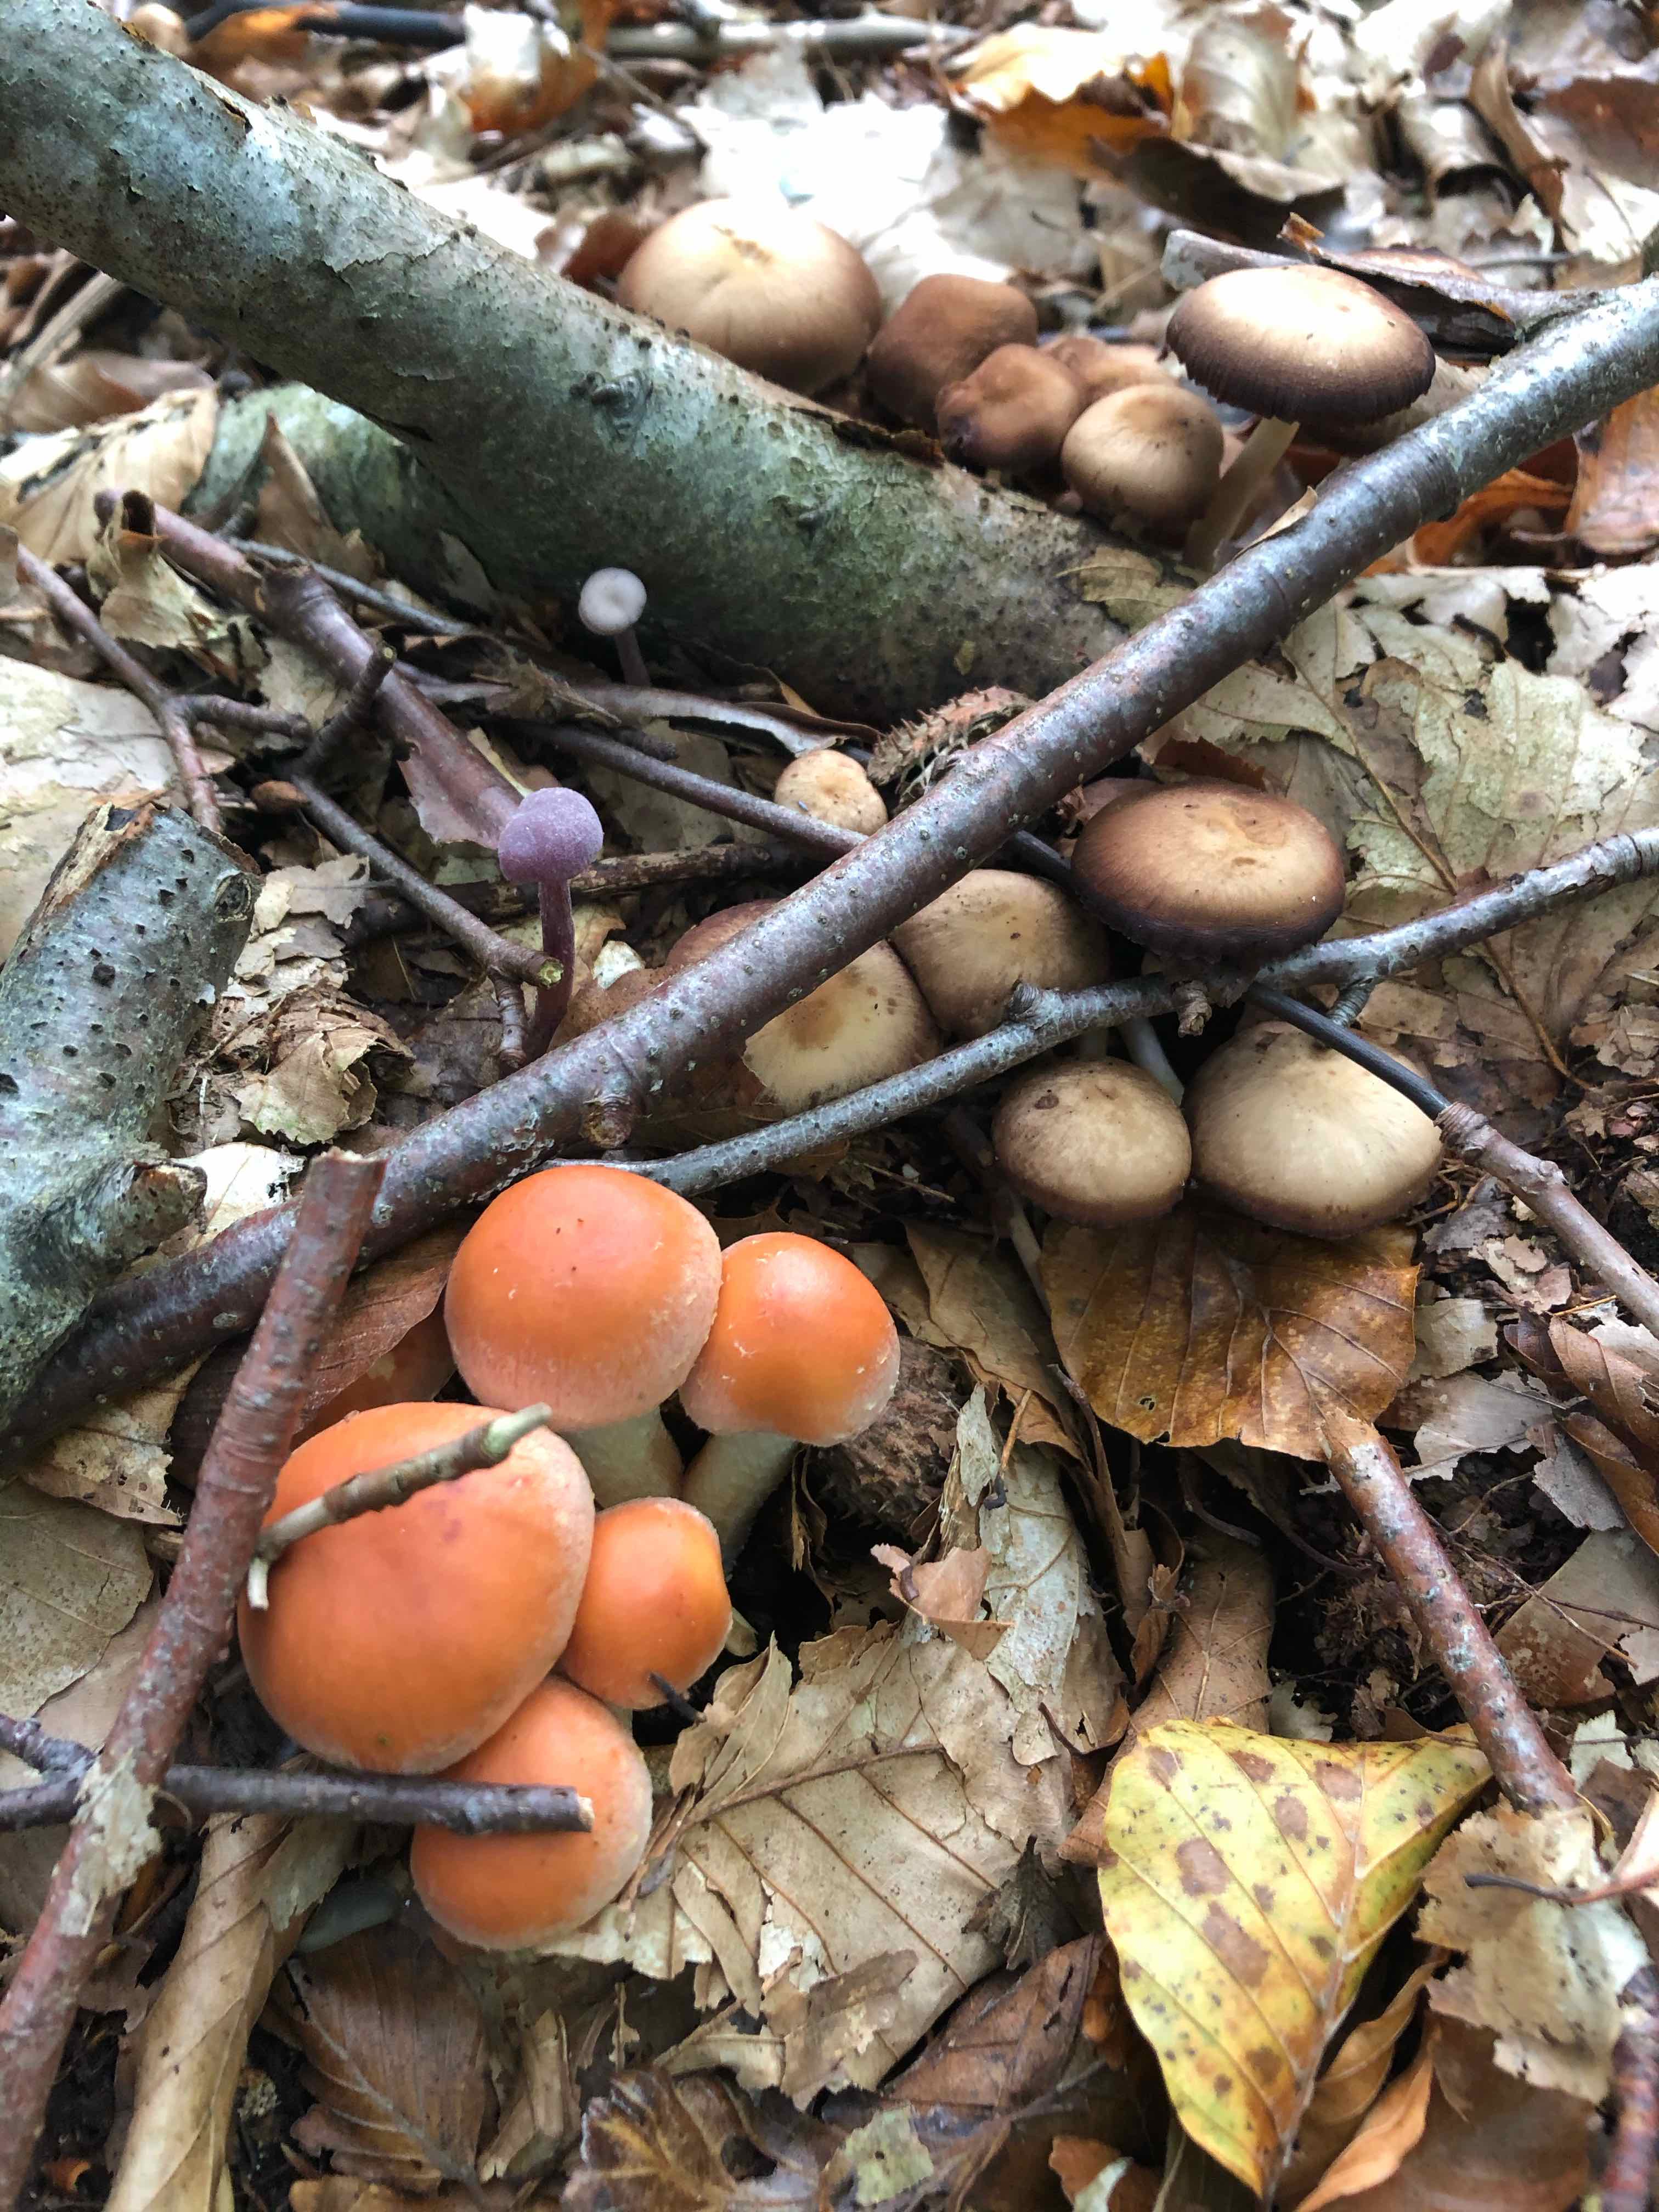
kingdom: Fungi
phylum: Basidiomycota
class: Agaricomycetes
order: Agaricales
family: Psathyrellaceae
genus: Psathyrella
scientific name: Psathyrella piluliformis
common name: lysstokket mørkhat
